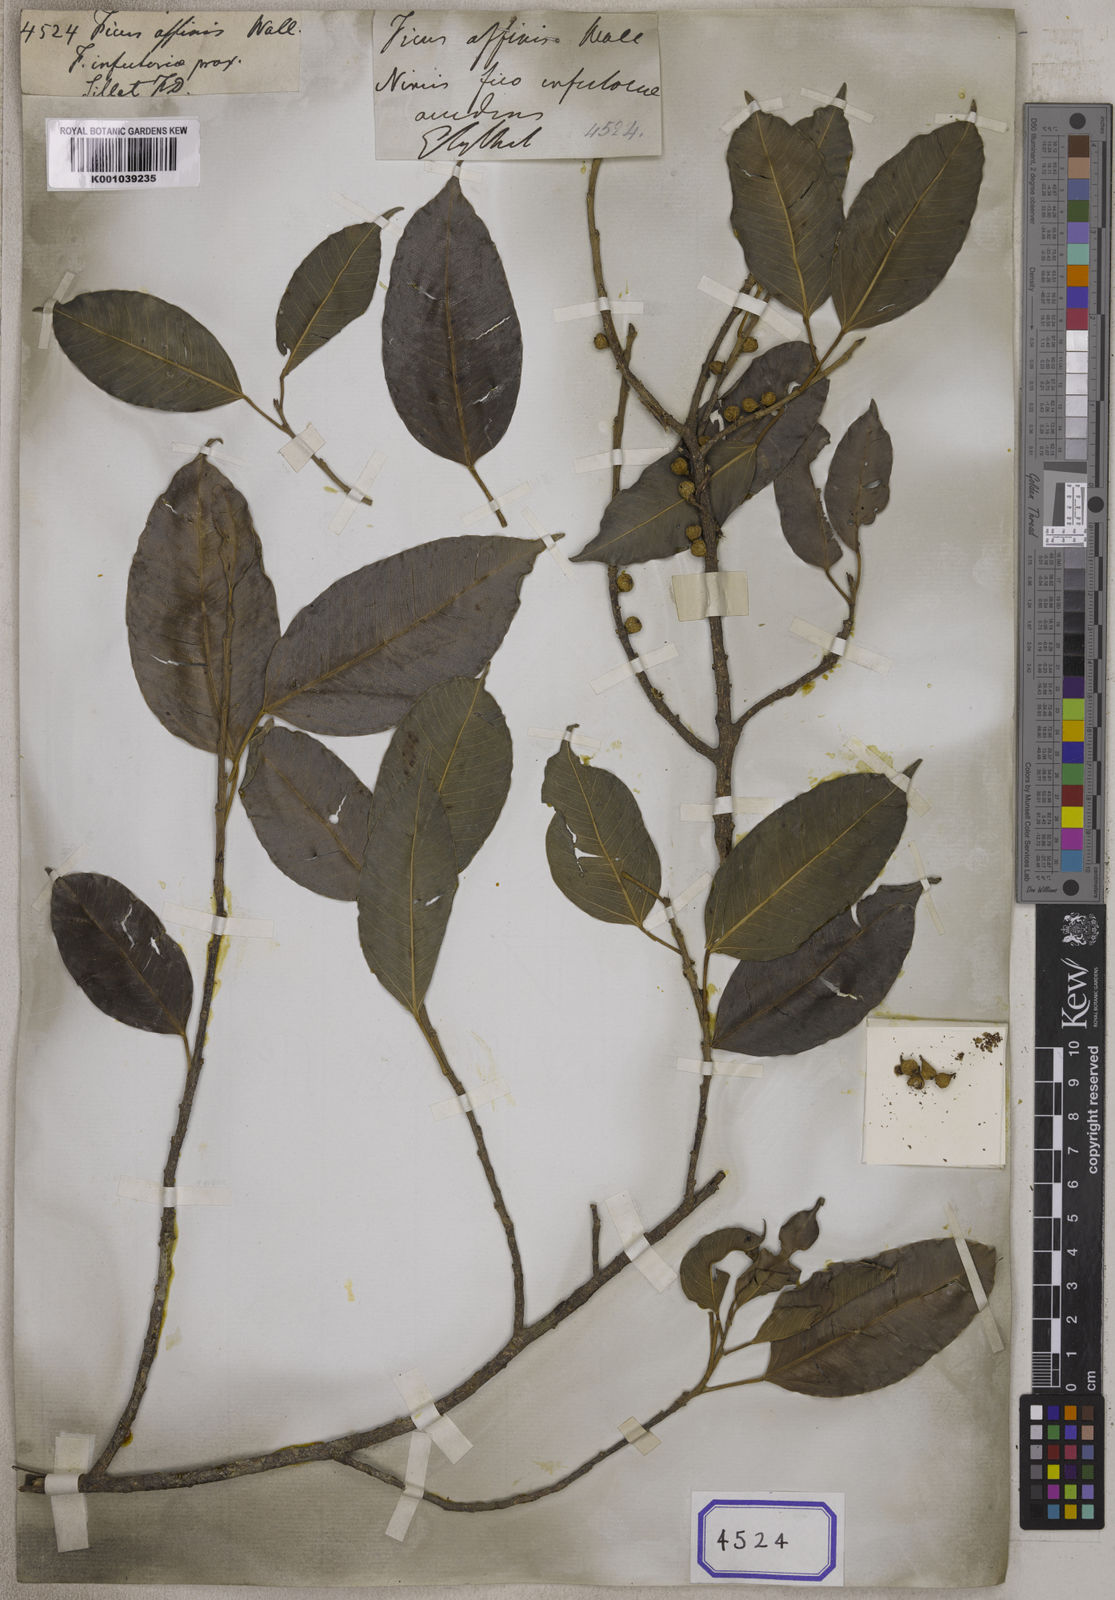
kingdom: Plantae
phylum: Tracheophyta
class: Magnoliopsida
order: Rosales
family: Moraceae
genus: Ficus
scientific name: Ficus
